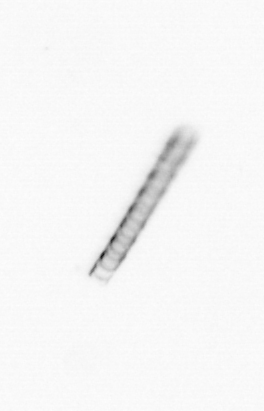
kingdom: Chromista
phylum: Ochrophyta
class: Bacillariophyceae
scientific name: Bacillariophyceae
